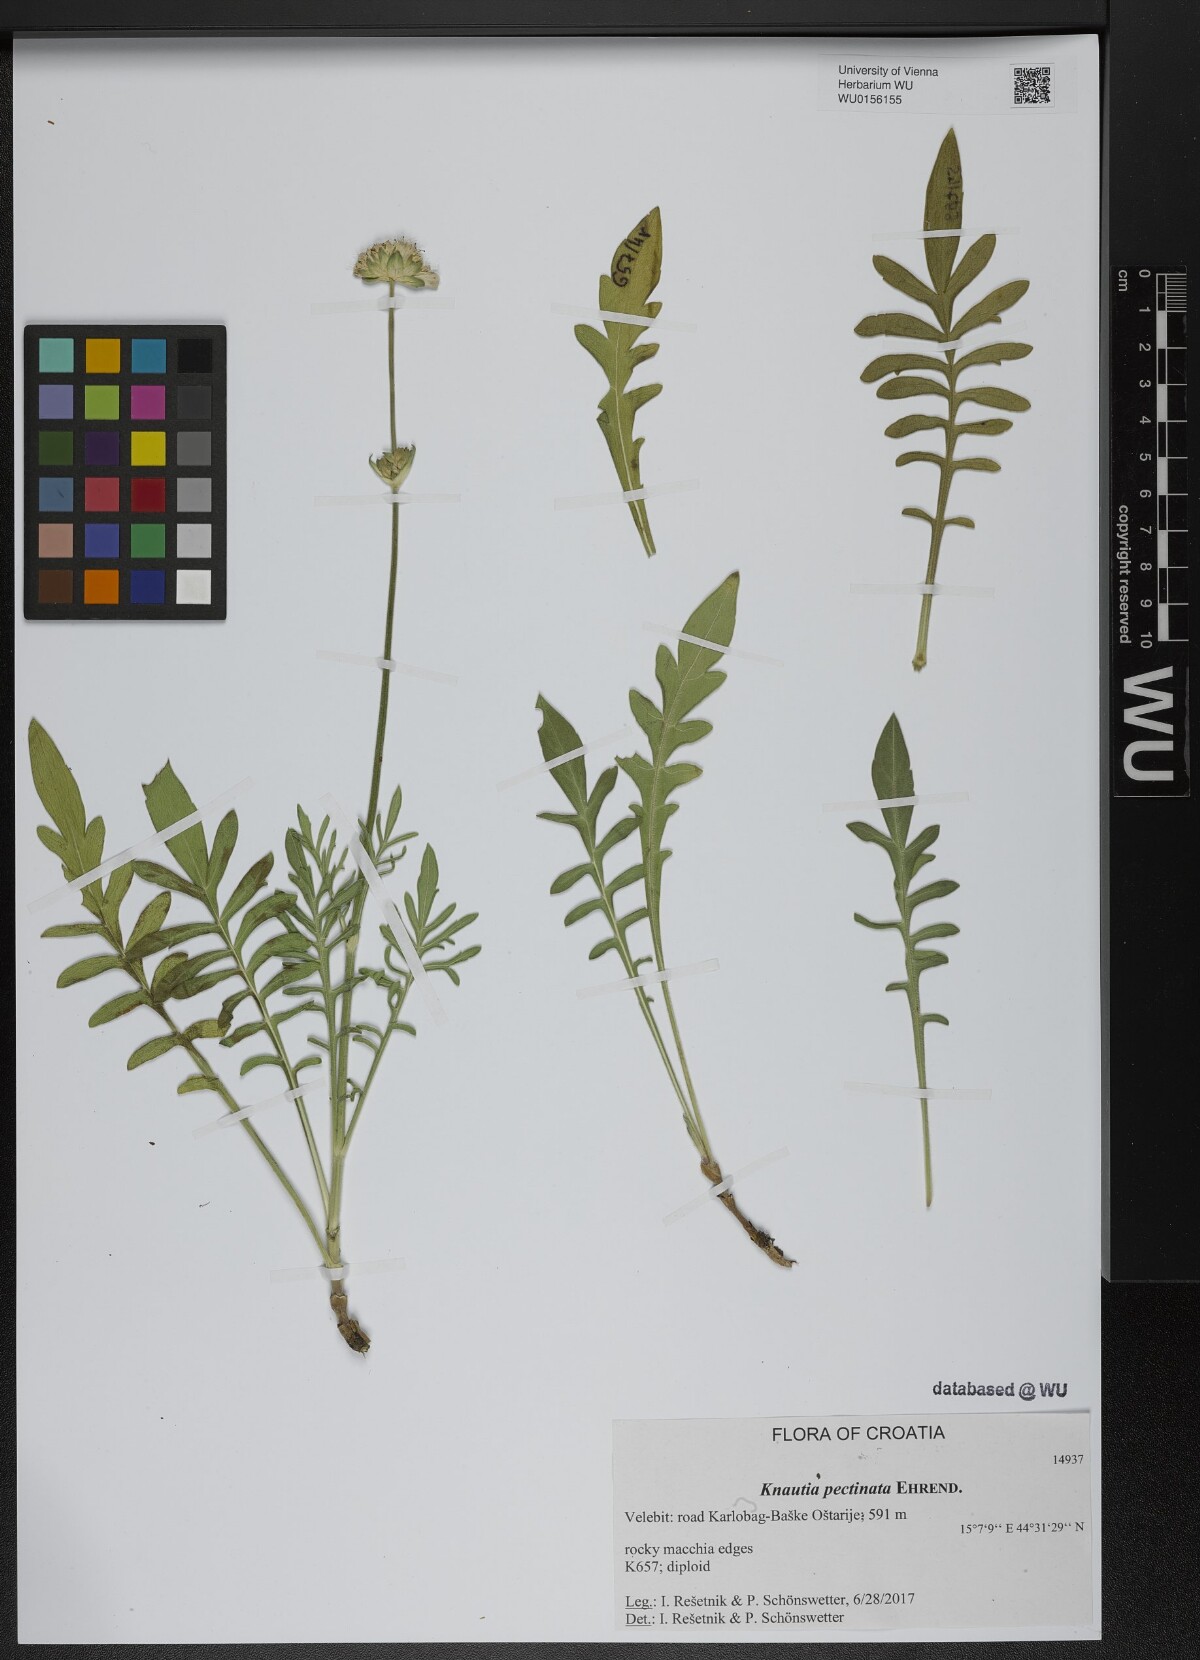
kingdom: Plantae
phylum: Tracheophyta
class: Magnoliopsida
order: Dipsacales
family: Caprifoliaceae
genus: Knautia
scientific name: Knautia pectinata
